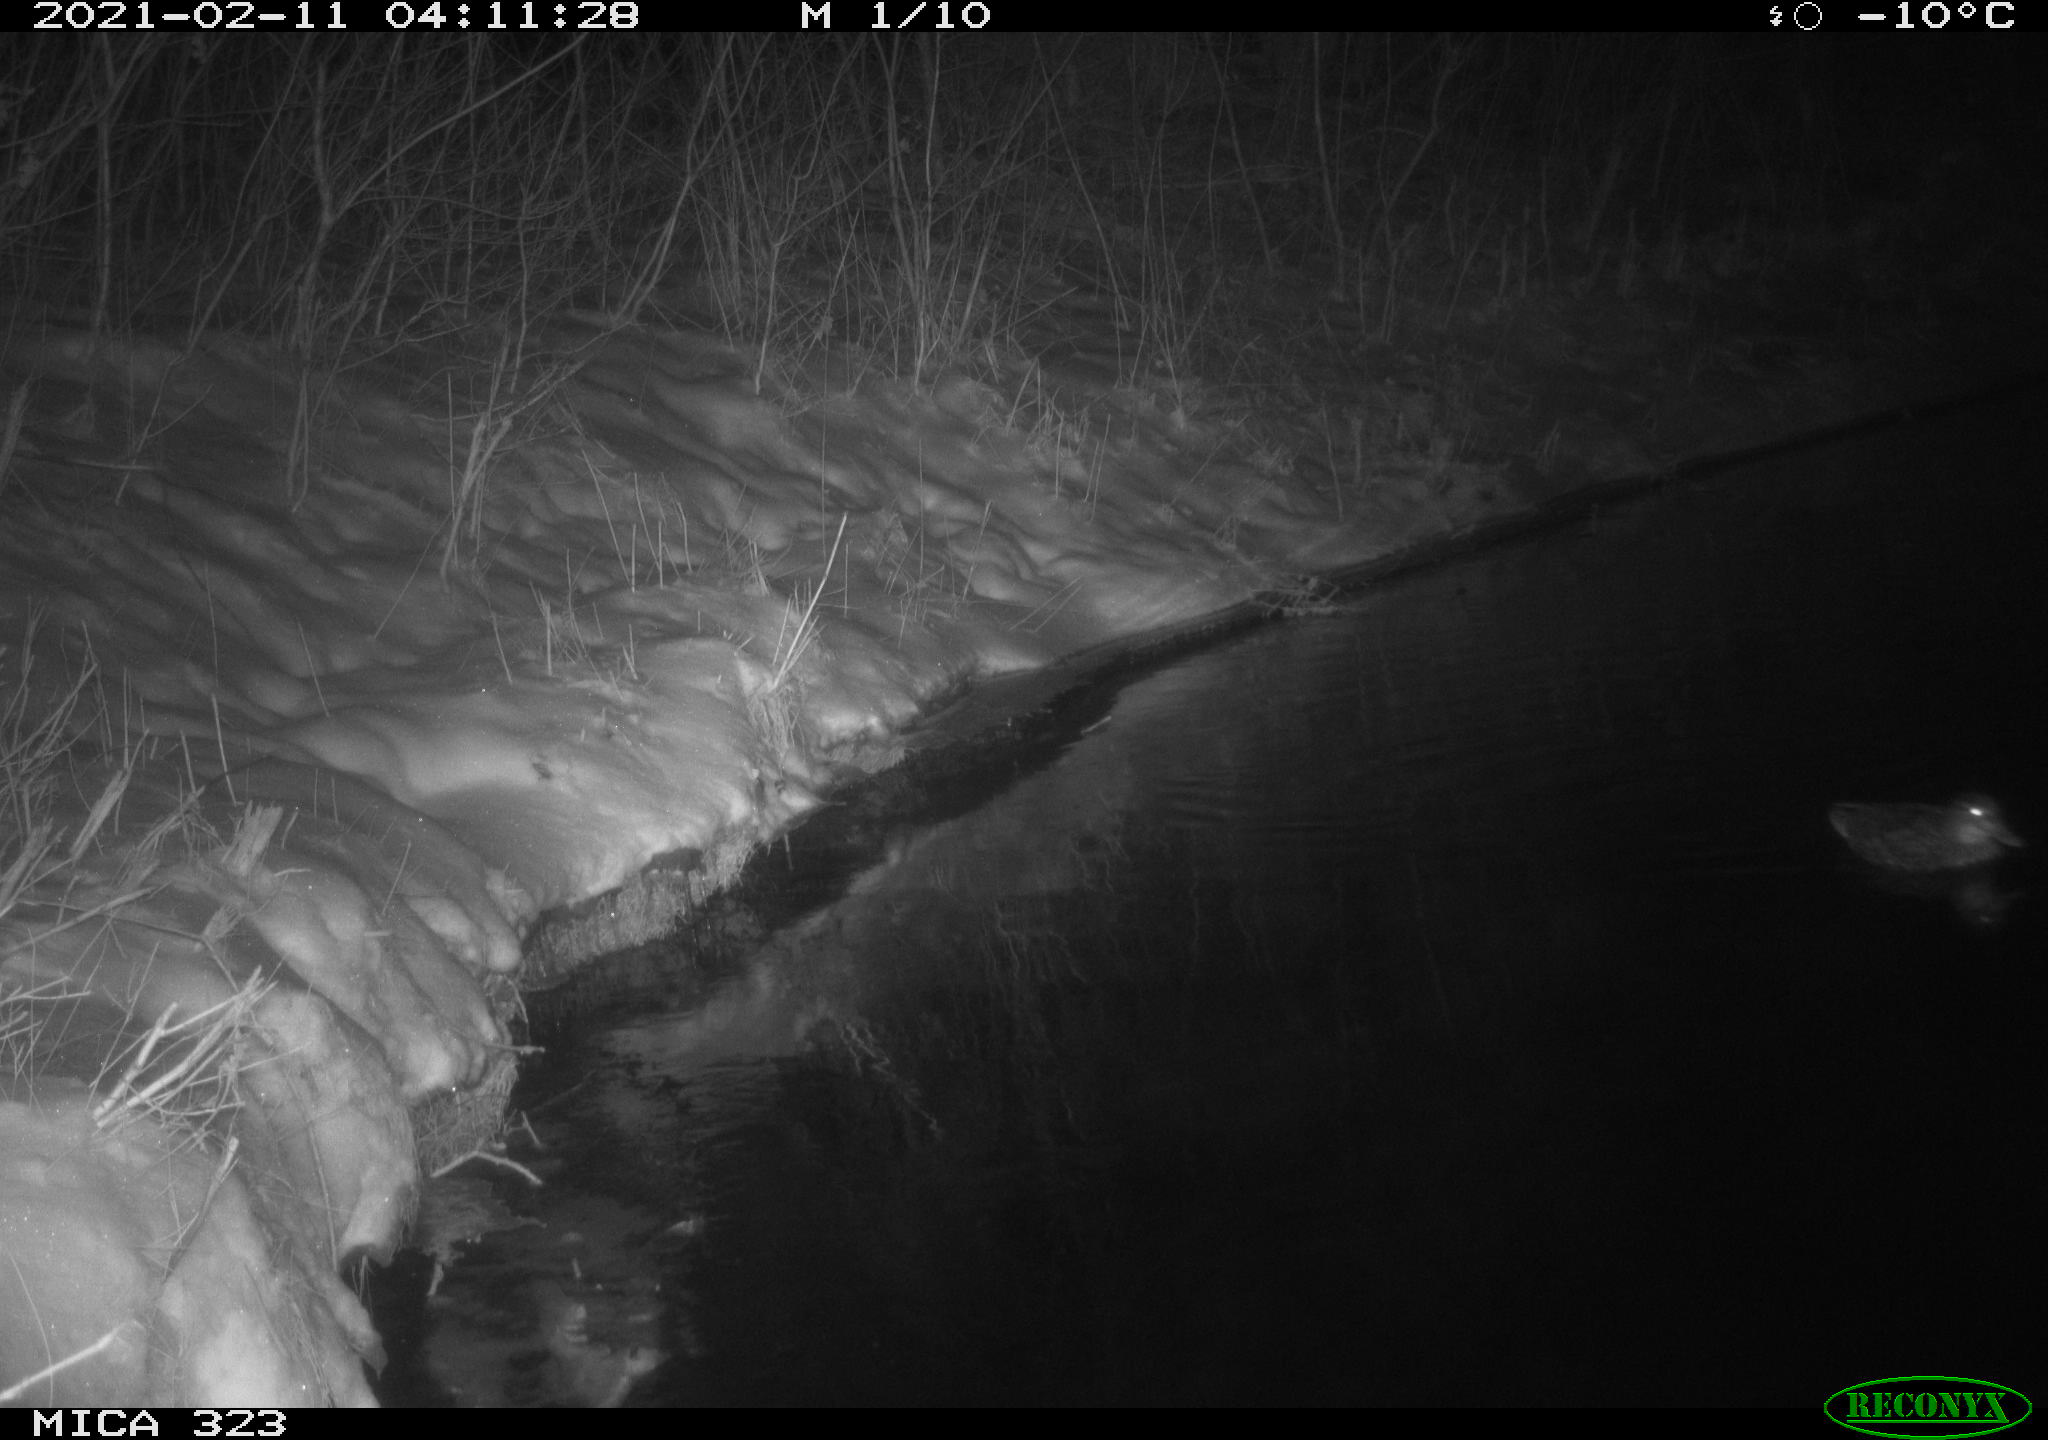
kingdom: Animalia
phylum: Chordata
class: Aves
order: Anseriformes
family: Anatidae
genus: Anas
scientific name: Anas platyrhynchos
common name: Mallard
